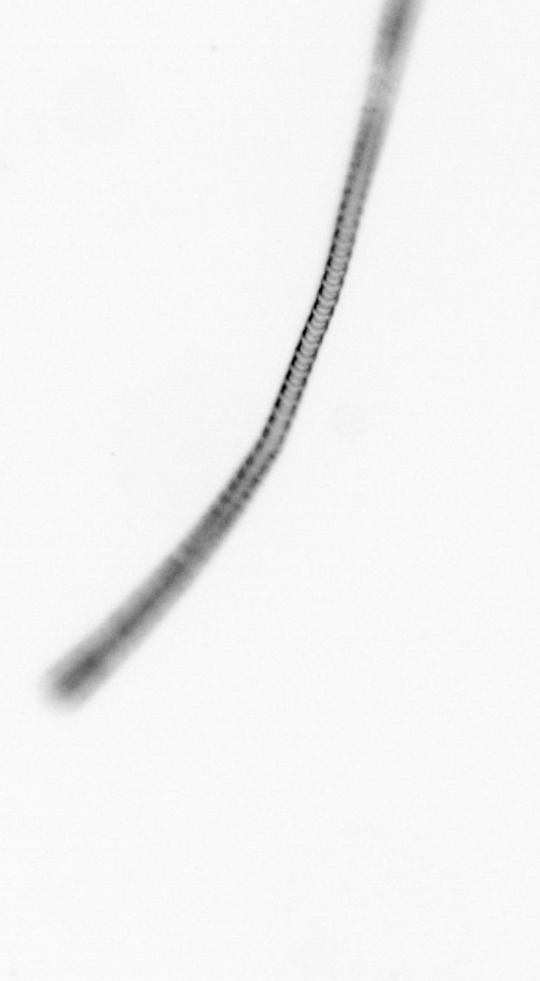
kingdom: Chromista
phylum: Ochrophyta
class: Bacillariophyceae
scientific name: Bacillariophyceae
